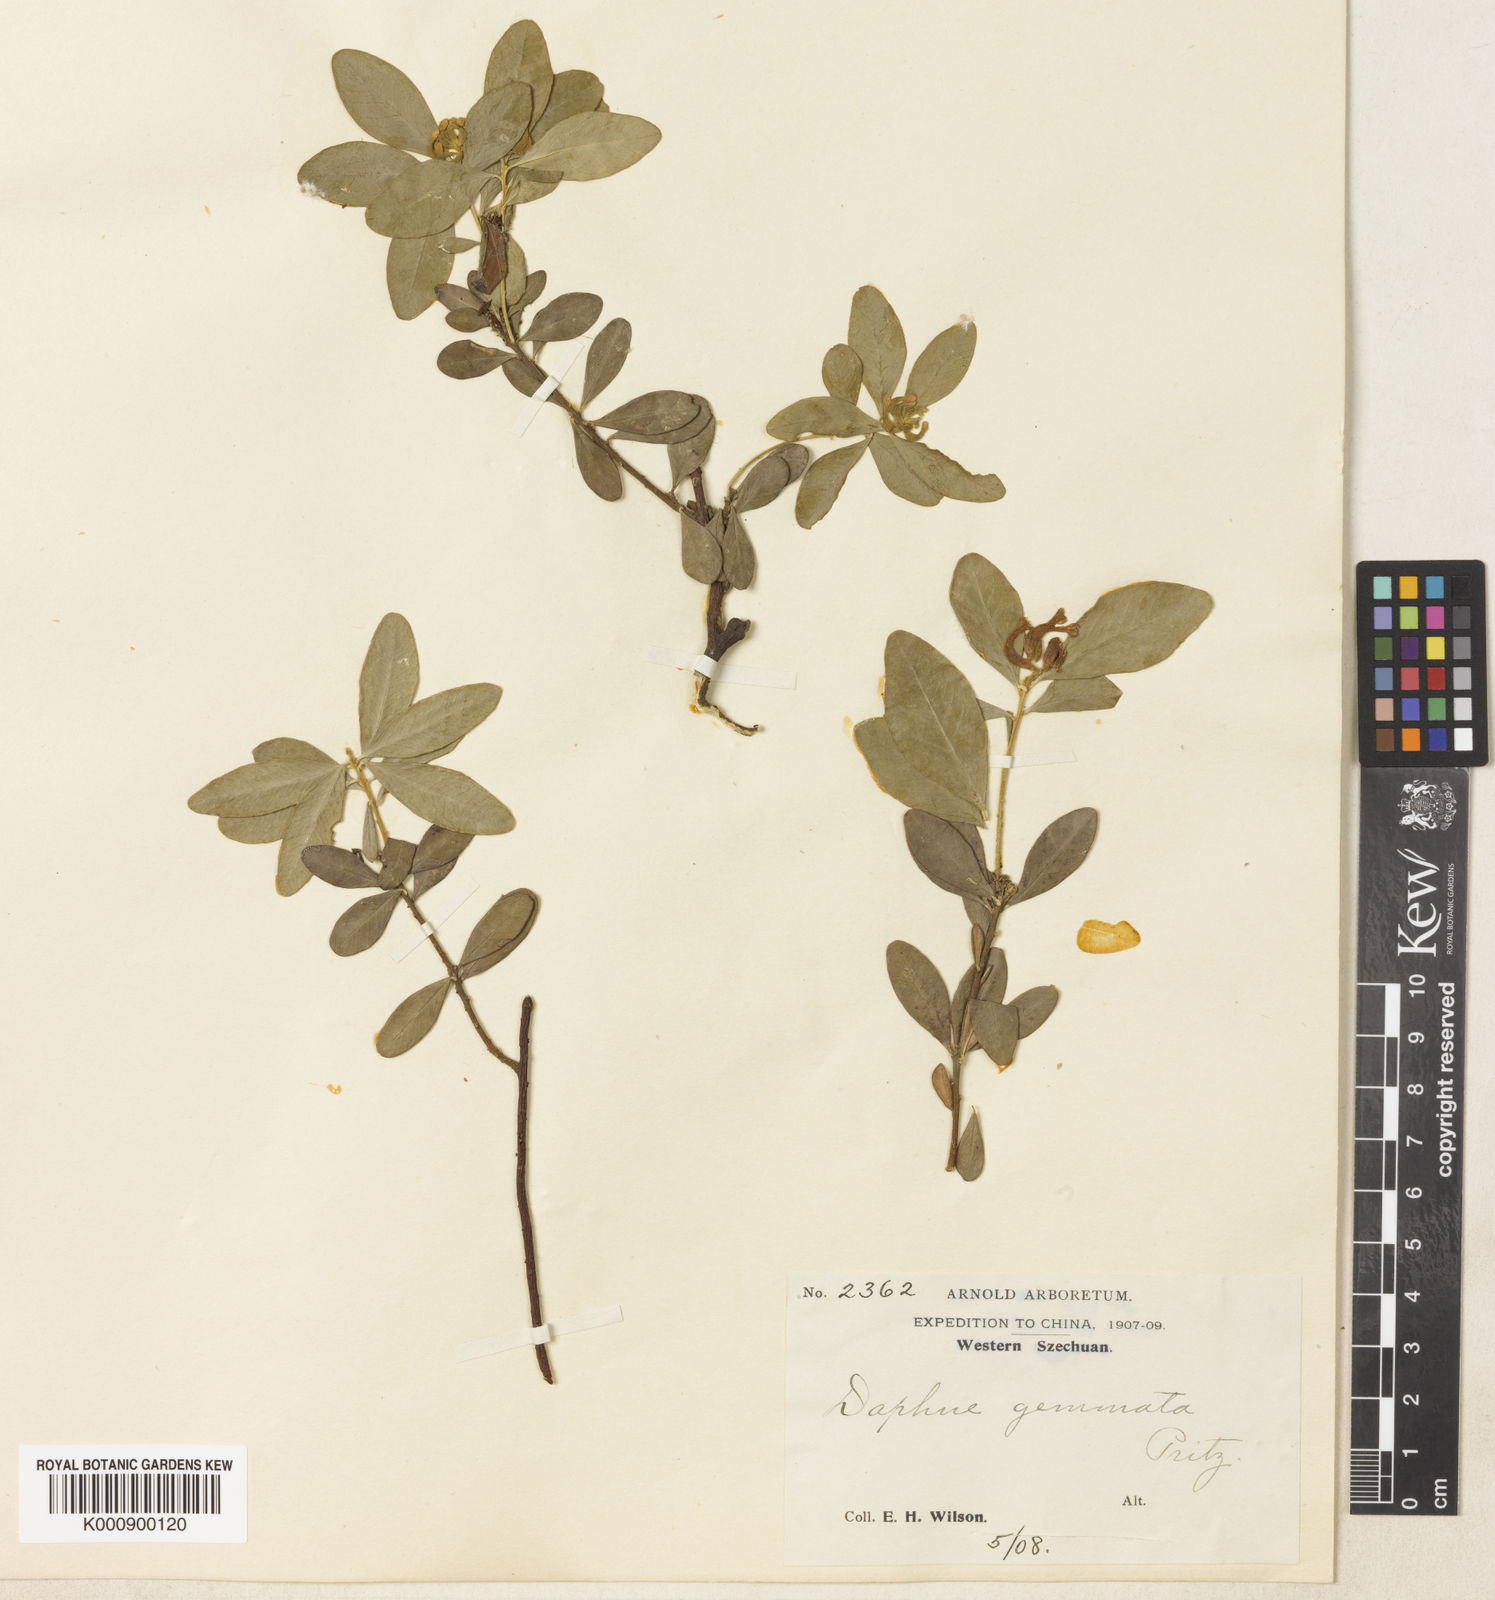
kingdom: Plantae
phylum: Tracheophyta
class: Magnoliopsida
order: Malvales
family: Thymelaeaceae
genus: Daphne
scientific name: Daphne
